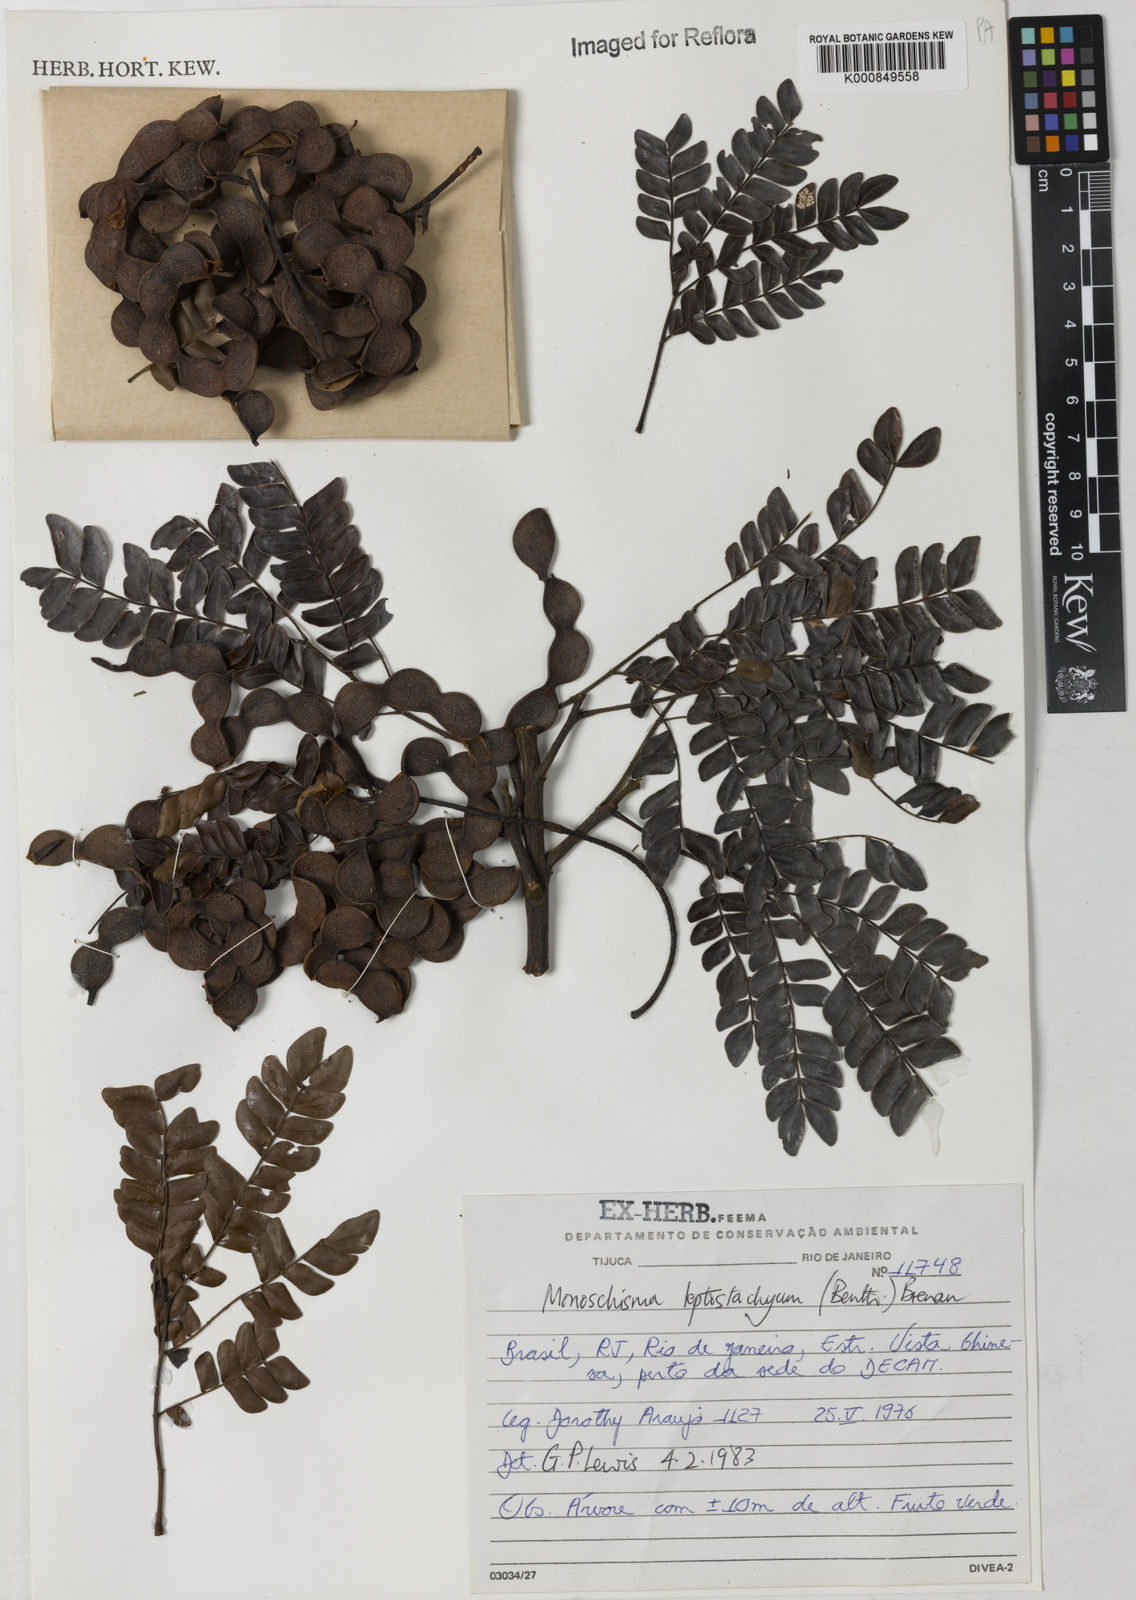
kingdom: Plantae
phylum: Tracheophyta
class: Magnoliopsida
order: Fabales
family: Fabaceae
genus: Pseudopiptadenia
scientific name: Pseudopiptadenia leptostachya
